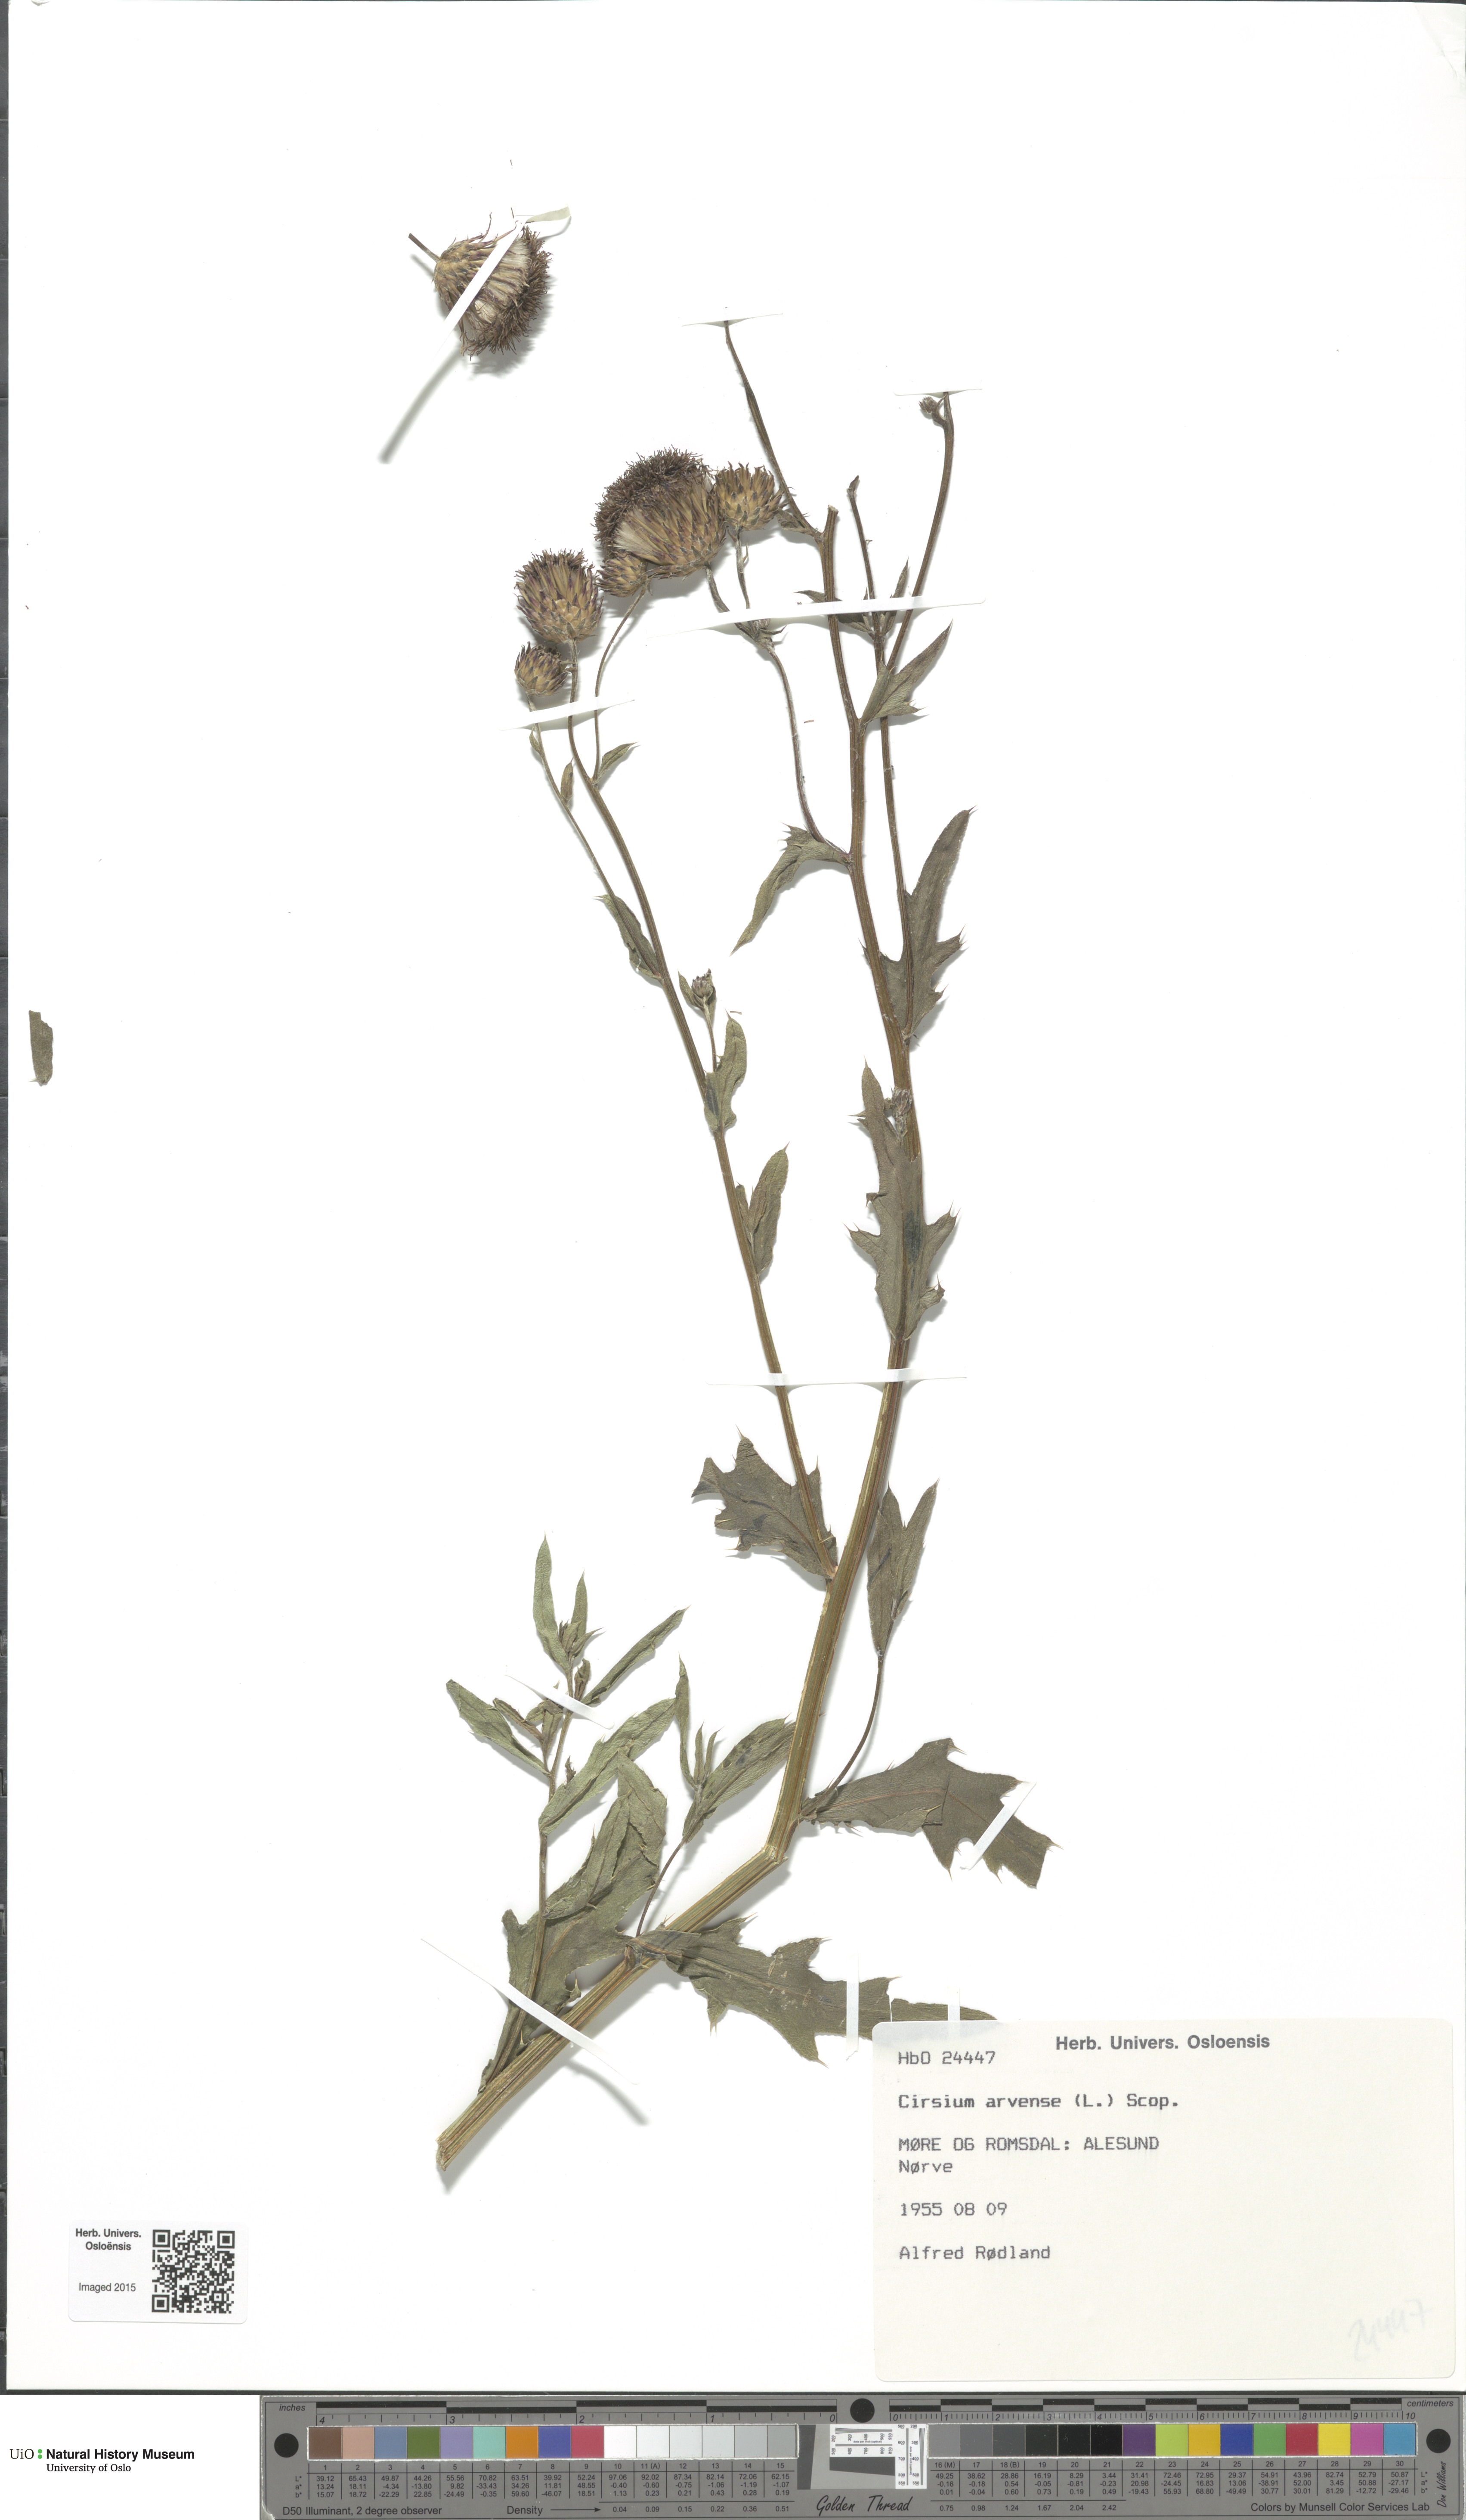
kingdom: Plantae
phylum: Tracheophyta
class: Magnoliopsida
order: Asterales
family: Asteraceae
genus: Cirsium
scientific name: Cirsium arvense
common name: Creeping thistle
